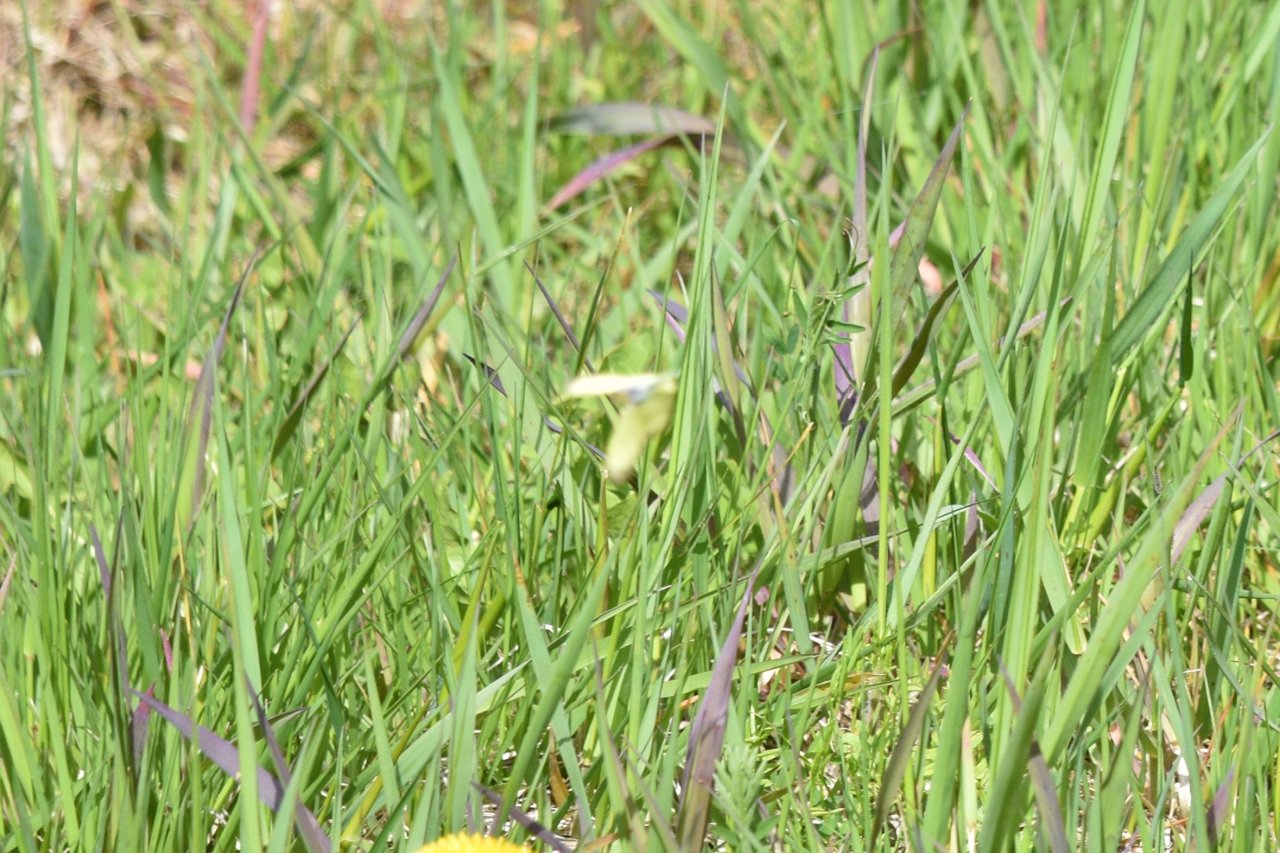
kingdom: Animalia
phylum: Arthropoda
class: Insecta
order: Lepidoptera
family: Pieridae
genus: Colias
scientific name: Colias philodice
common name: Clouded Sulphur
